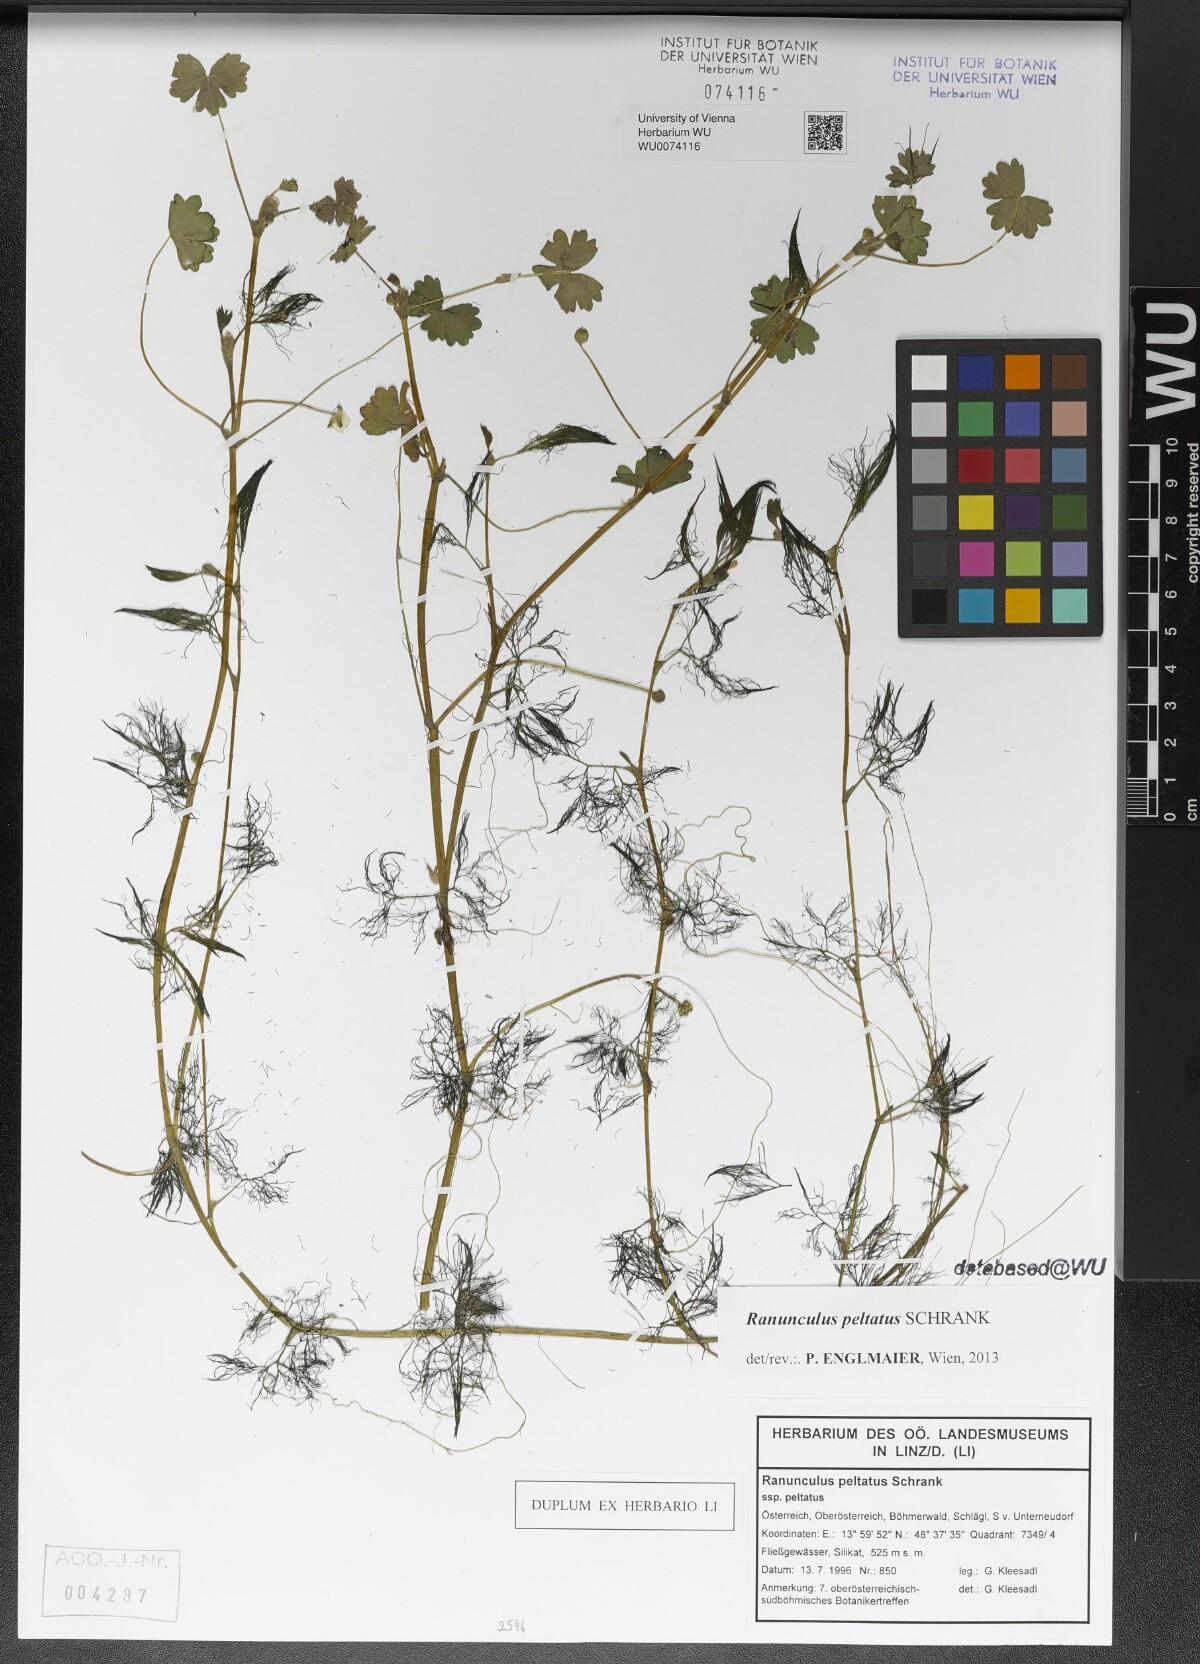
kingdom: Plantae
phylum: Tracheophyta
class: Magnoliopsida
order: Ranunculales
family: Ranunculaceae
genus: Ranunculus
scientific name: Ranunculus peltatus
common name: Pond water-crowfoot
